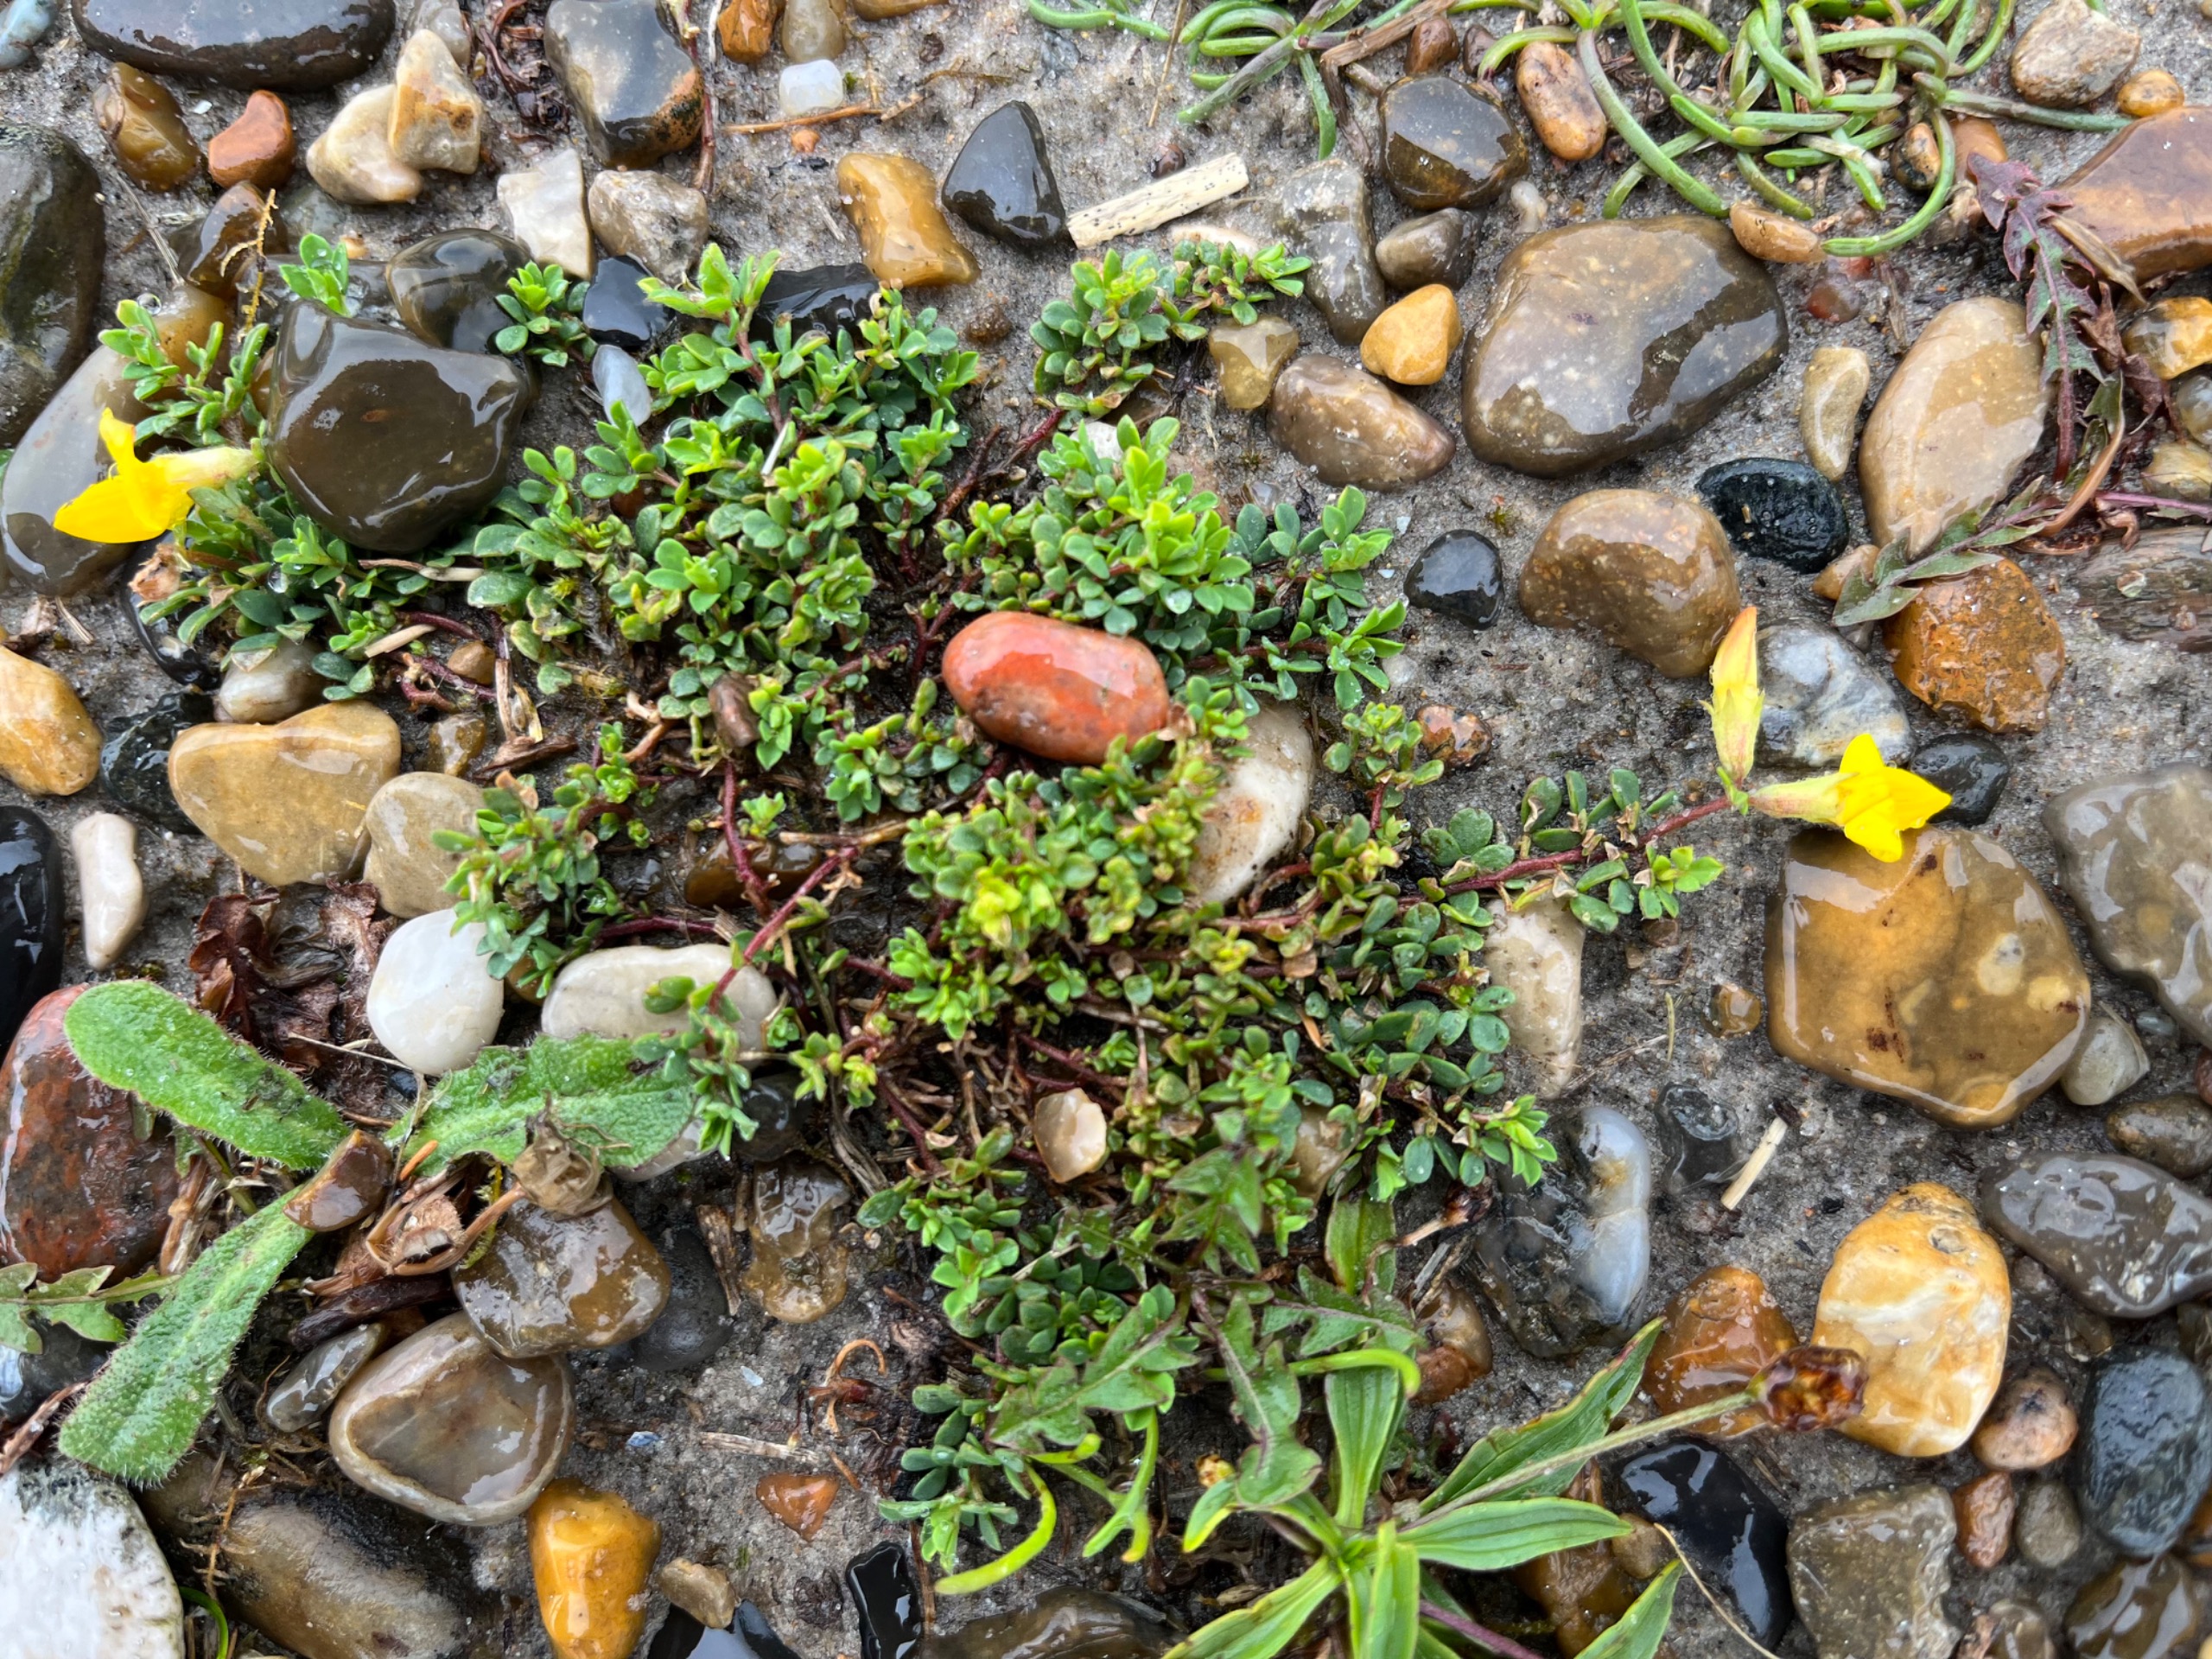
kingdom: Plantae
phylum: Tracheophyta
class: Magnoliopsida
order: Fabales
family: Fabaceae
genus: Lotus
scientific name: Lotus corniculatus
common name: Almindelig kællingetand
